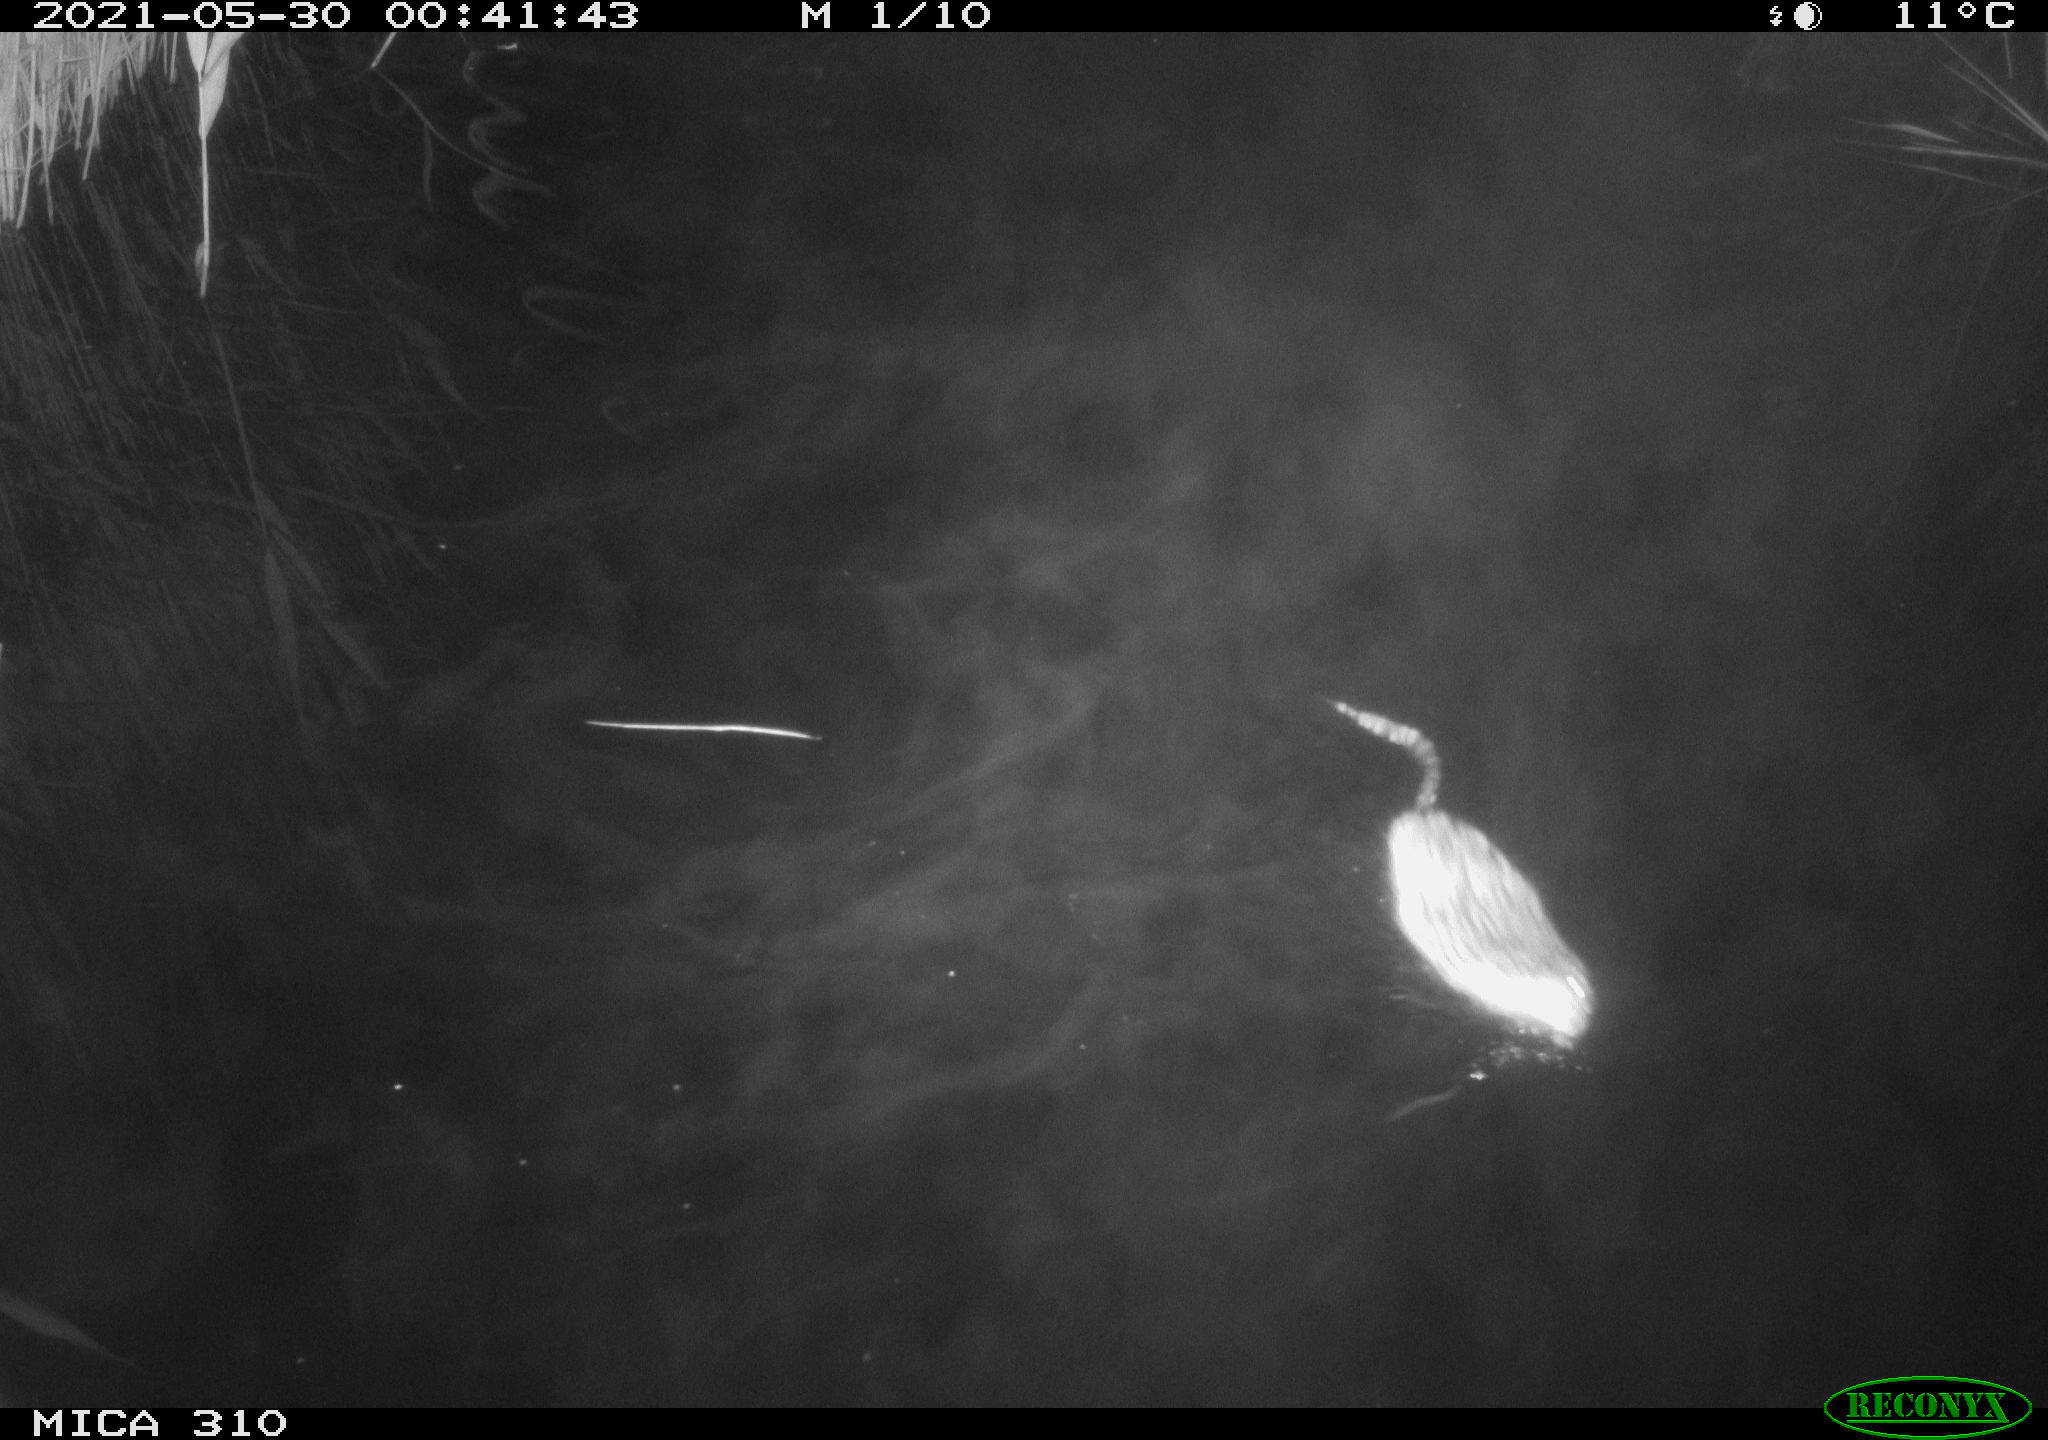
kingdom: Animalia
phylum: Chordata
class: Mammalia
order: Rodentia
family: Cricetidae
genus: Ondatra
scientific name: Ondatra zibethicus
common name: Muskrat
